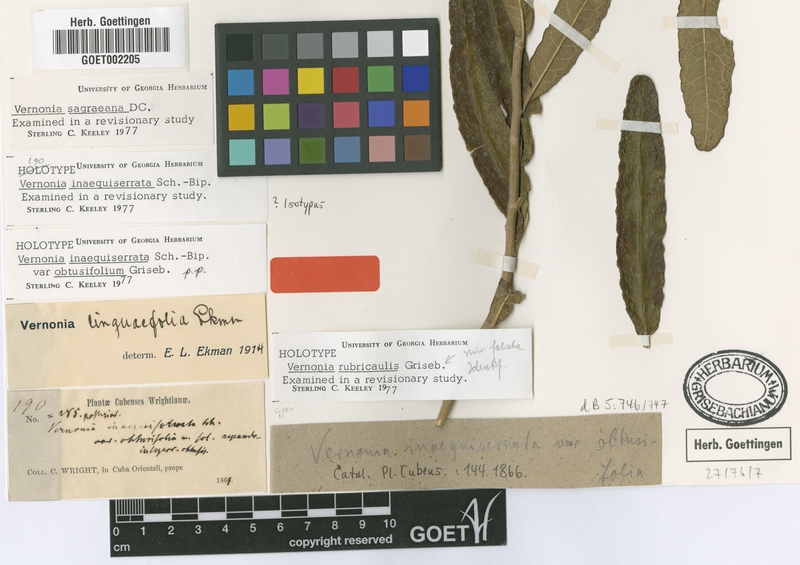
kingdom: Plantae
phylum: Tracheophyta
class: Magnoliopsida
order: Asterales
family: Asteraceae
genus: Lepidaploa
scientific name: Lepidaploa sagraeana
